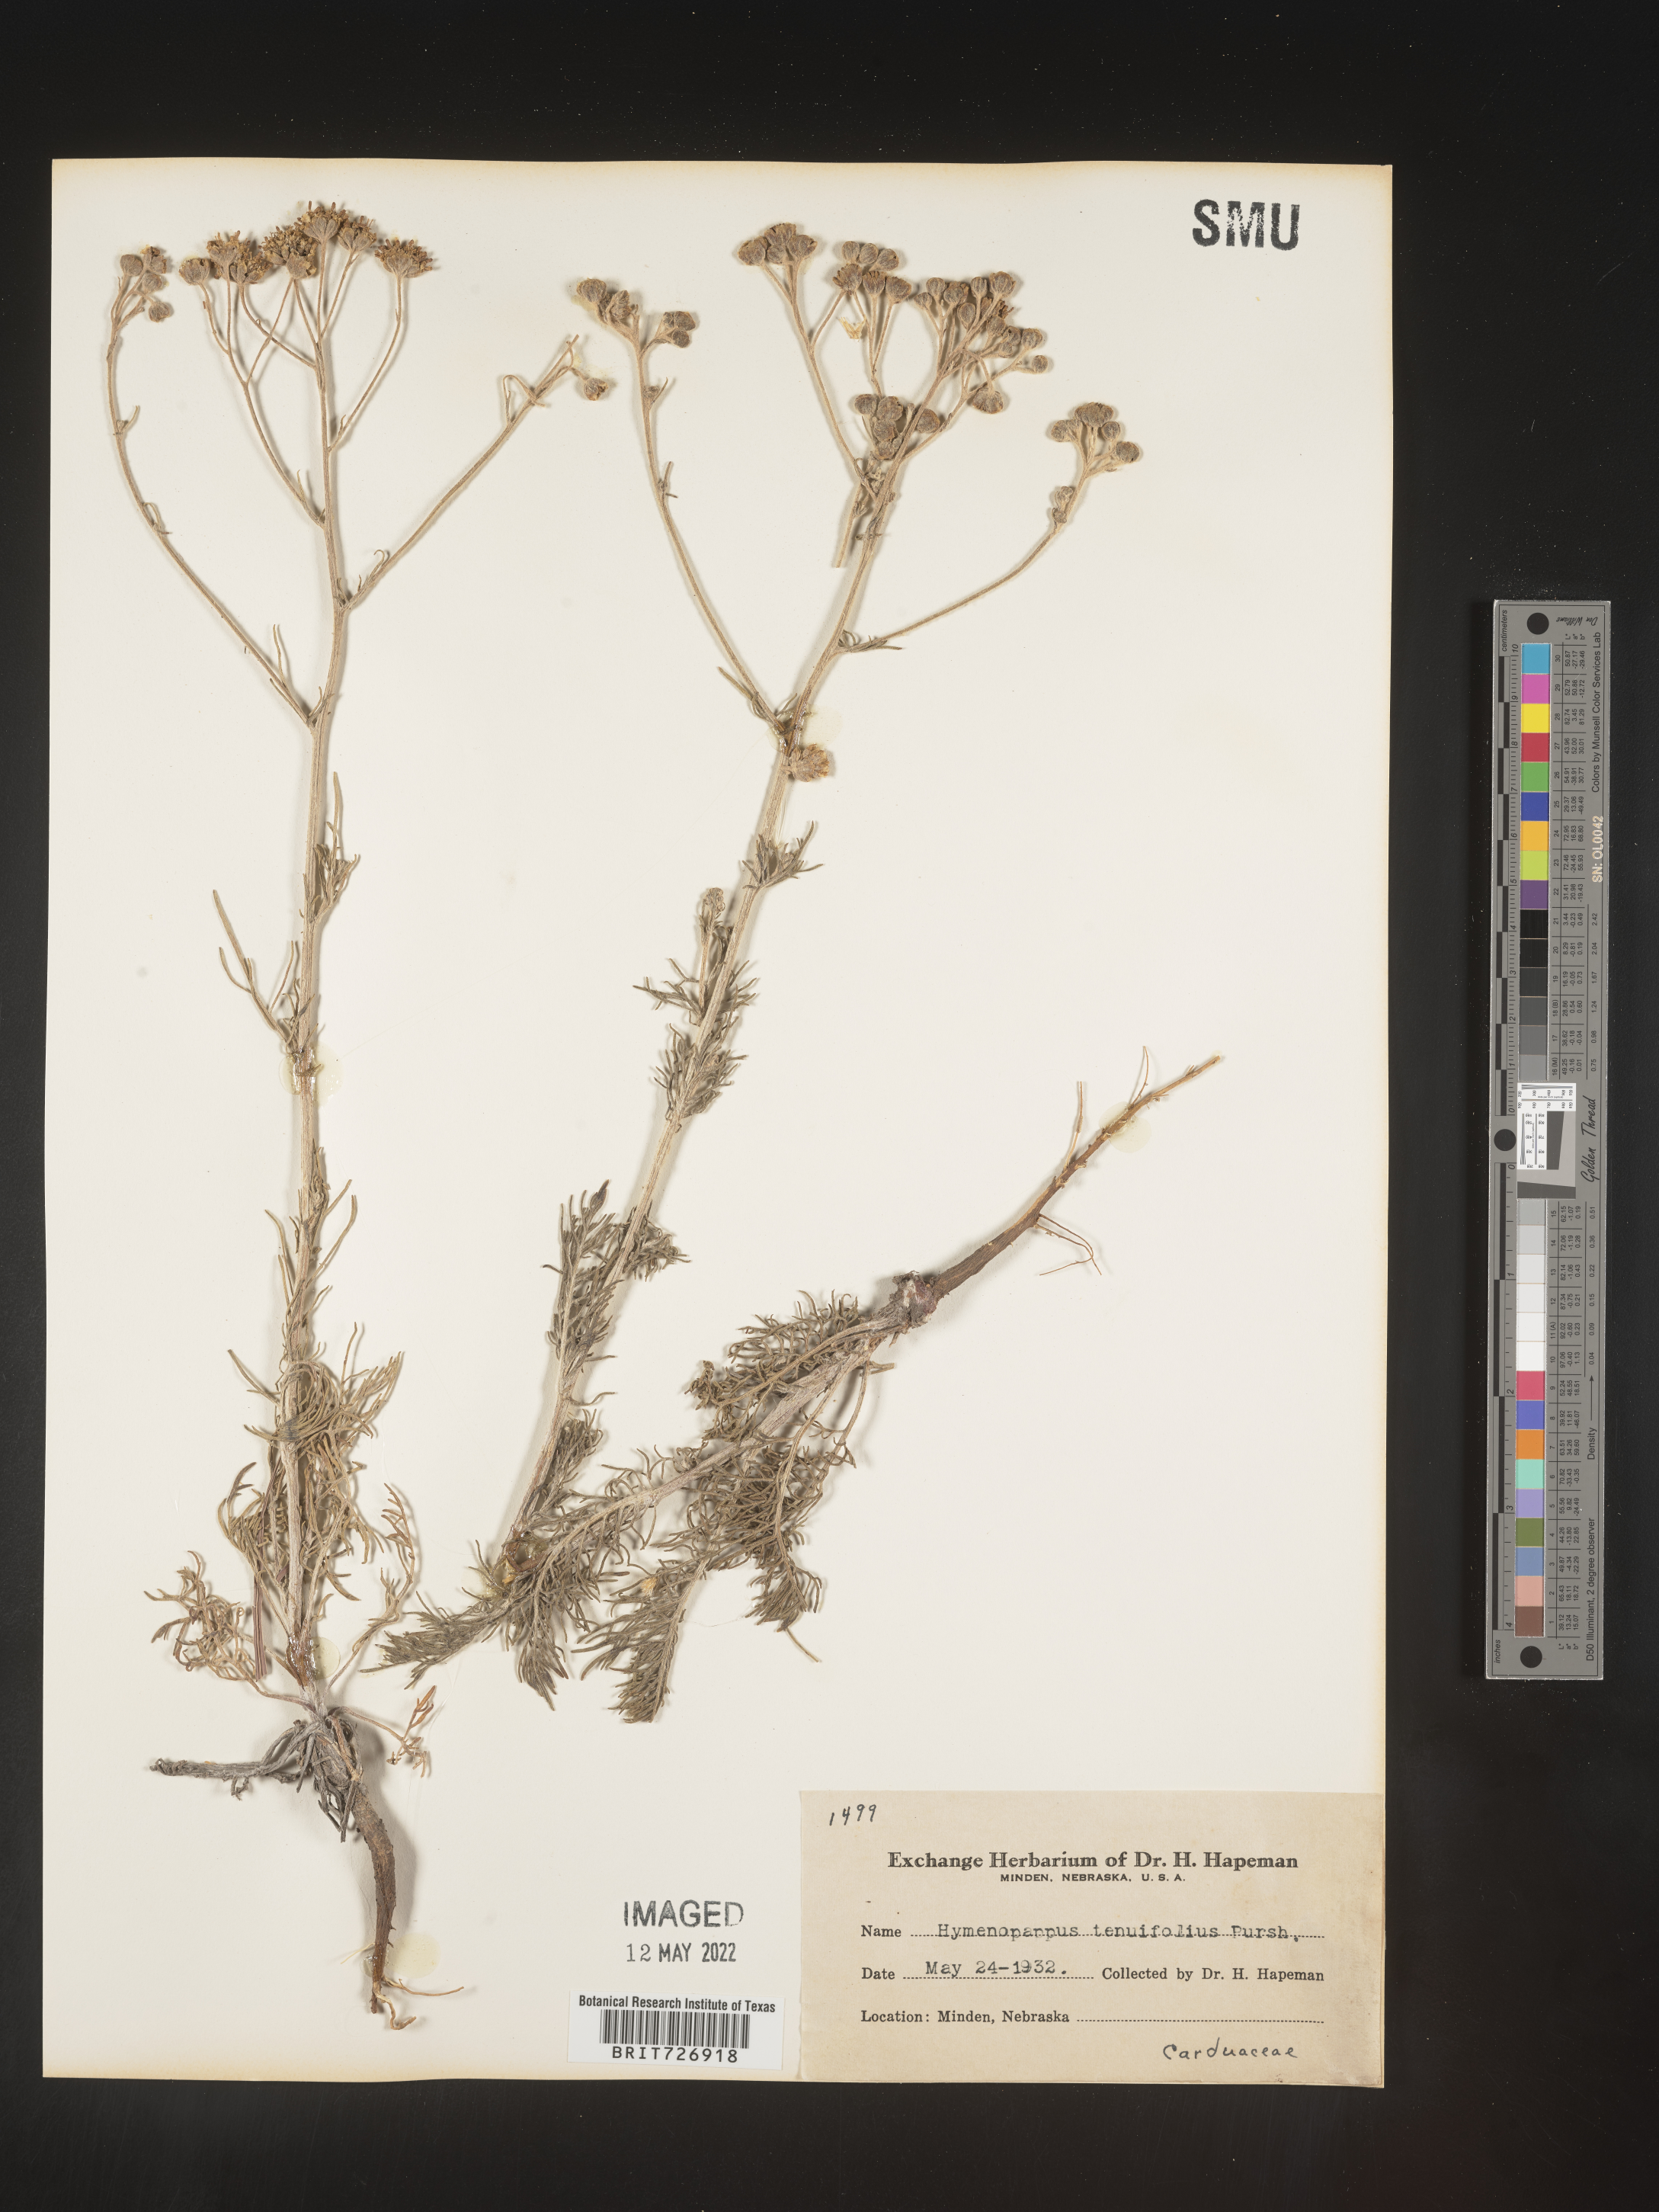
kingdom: Plantae
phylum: Tracheophyta
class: Magnoliopsida
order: Asterales
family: Asteraceae
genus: Hymenopappus
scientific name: Hymenopappus tenuifolius
